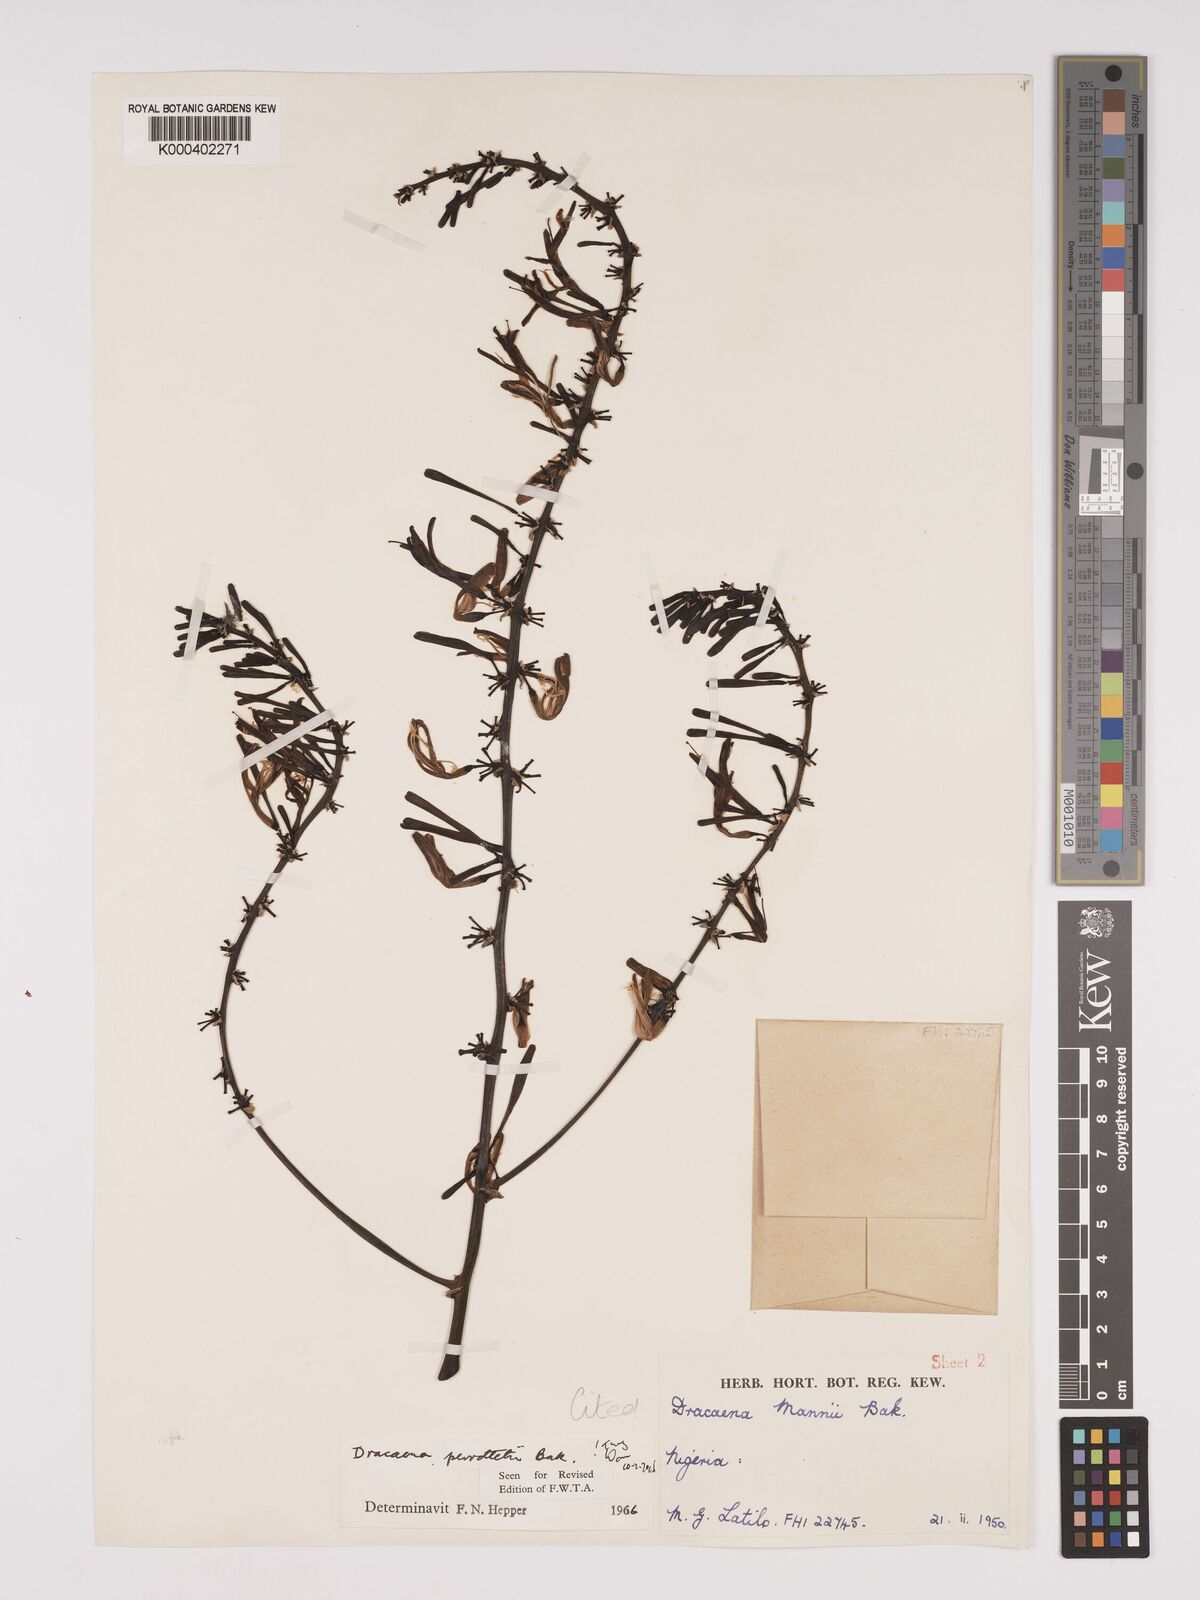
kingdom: Plantae
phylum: Tracheophyta
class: Liliopsida
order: Asparagales
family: Asparagaceae
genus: Dracaena
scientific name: Dracaena perrottetii
